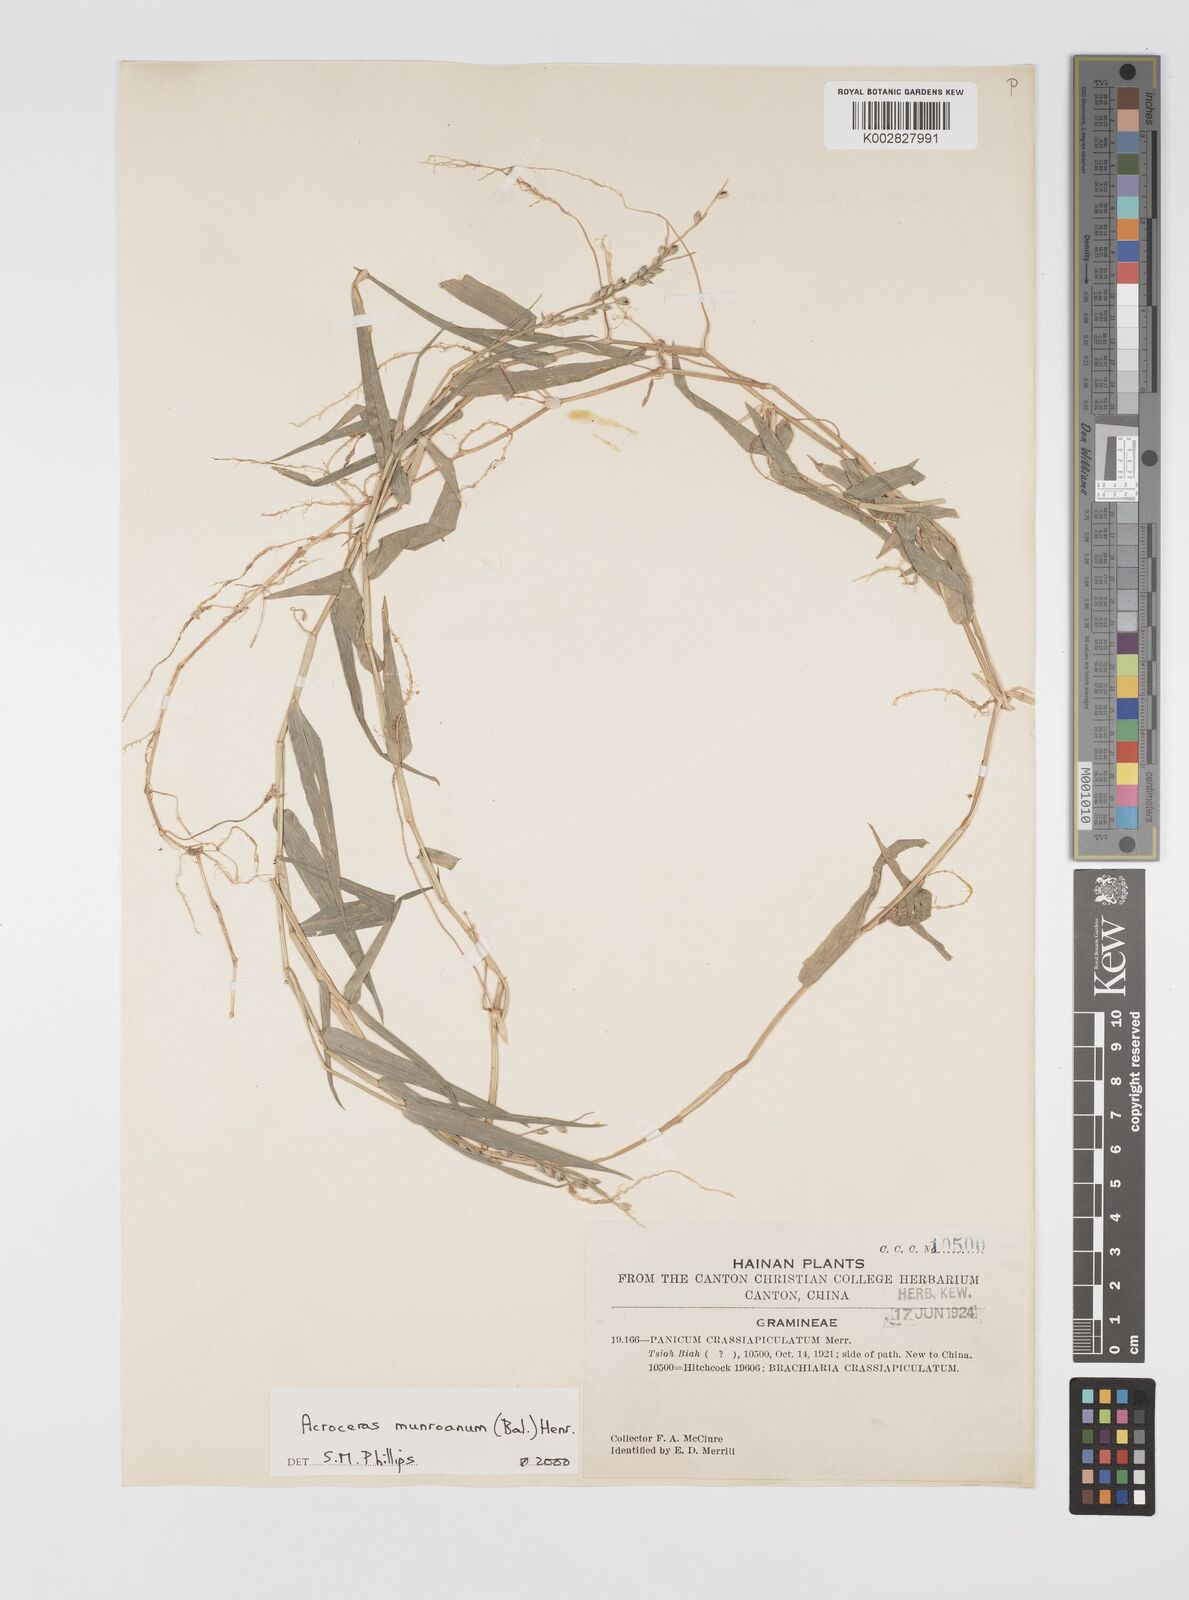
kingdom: Plantae
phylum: Tracheophyta
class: Liliopsida
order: Poales
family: Poaceae
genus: Acroceras
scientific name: Acroceras munroanum
